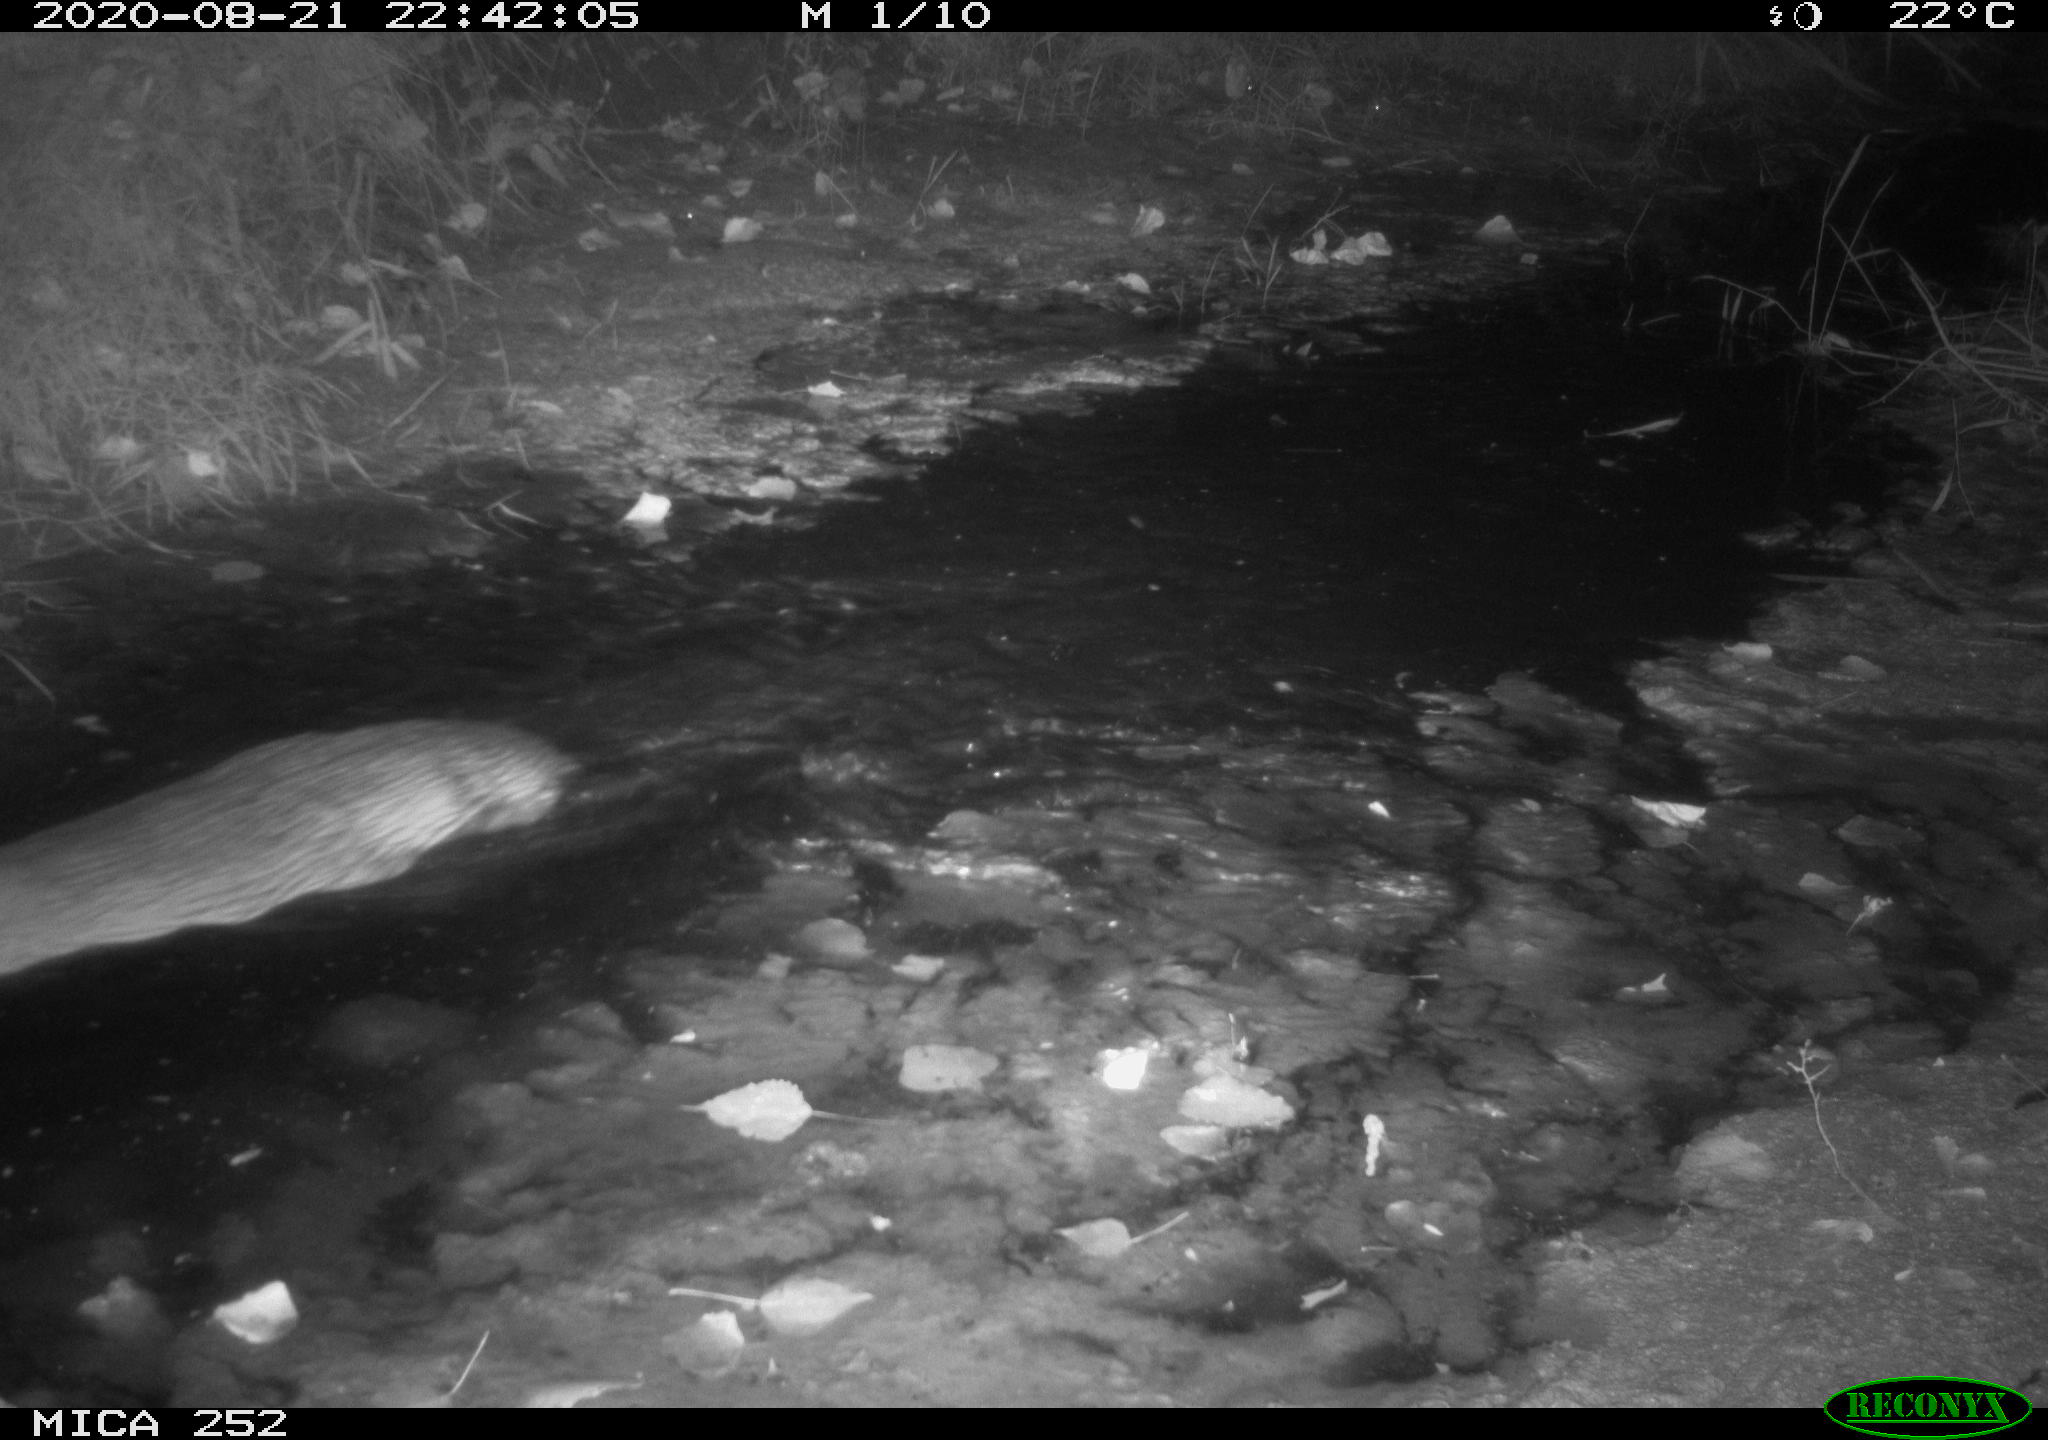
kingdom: Animalia
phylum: Chordata
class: Mammalia
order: Rodentia
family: Castoridae
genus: Castor
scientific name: Castor fiber
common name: Eurasian beaver
